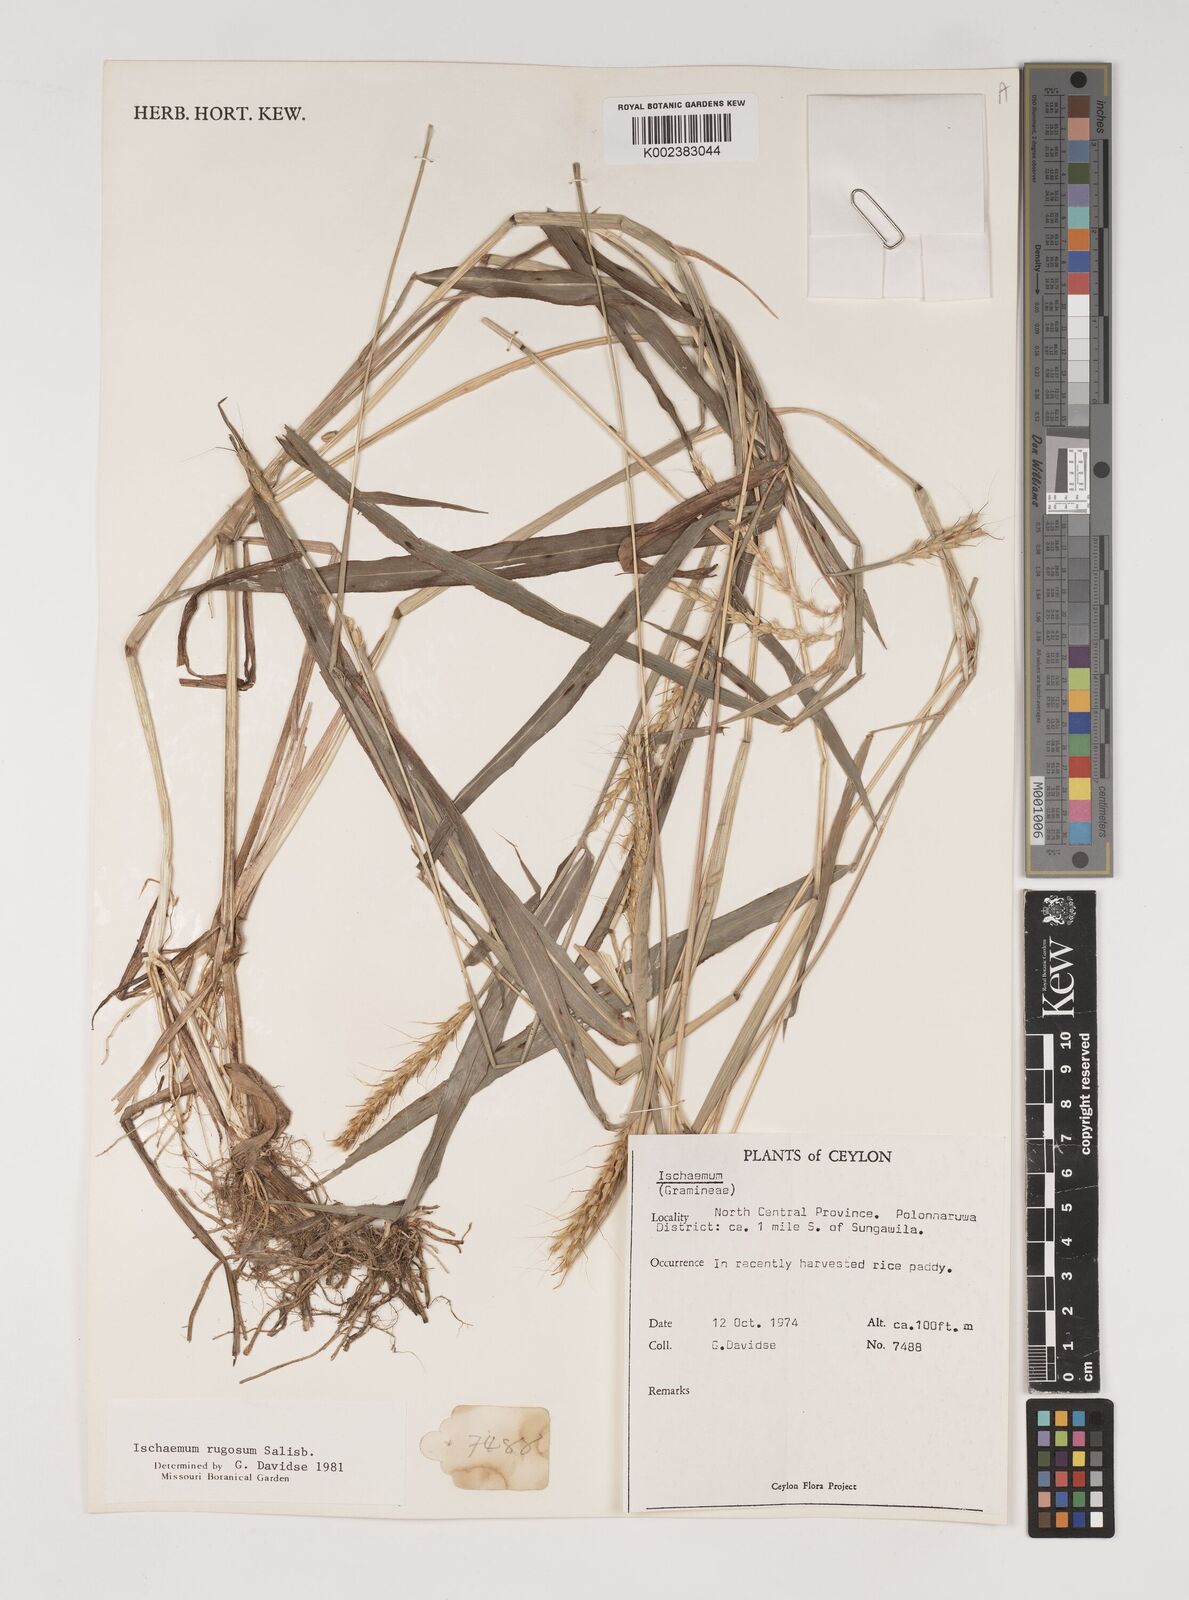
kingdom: Plantae
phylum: Tracheophyta
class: Liliopsida
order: Poales
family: Poaceae
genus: Ischaemum
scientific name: Ischaemum rugosum
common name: Saramatta grass
